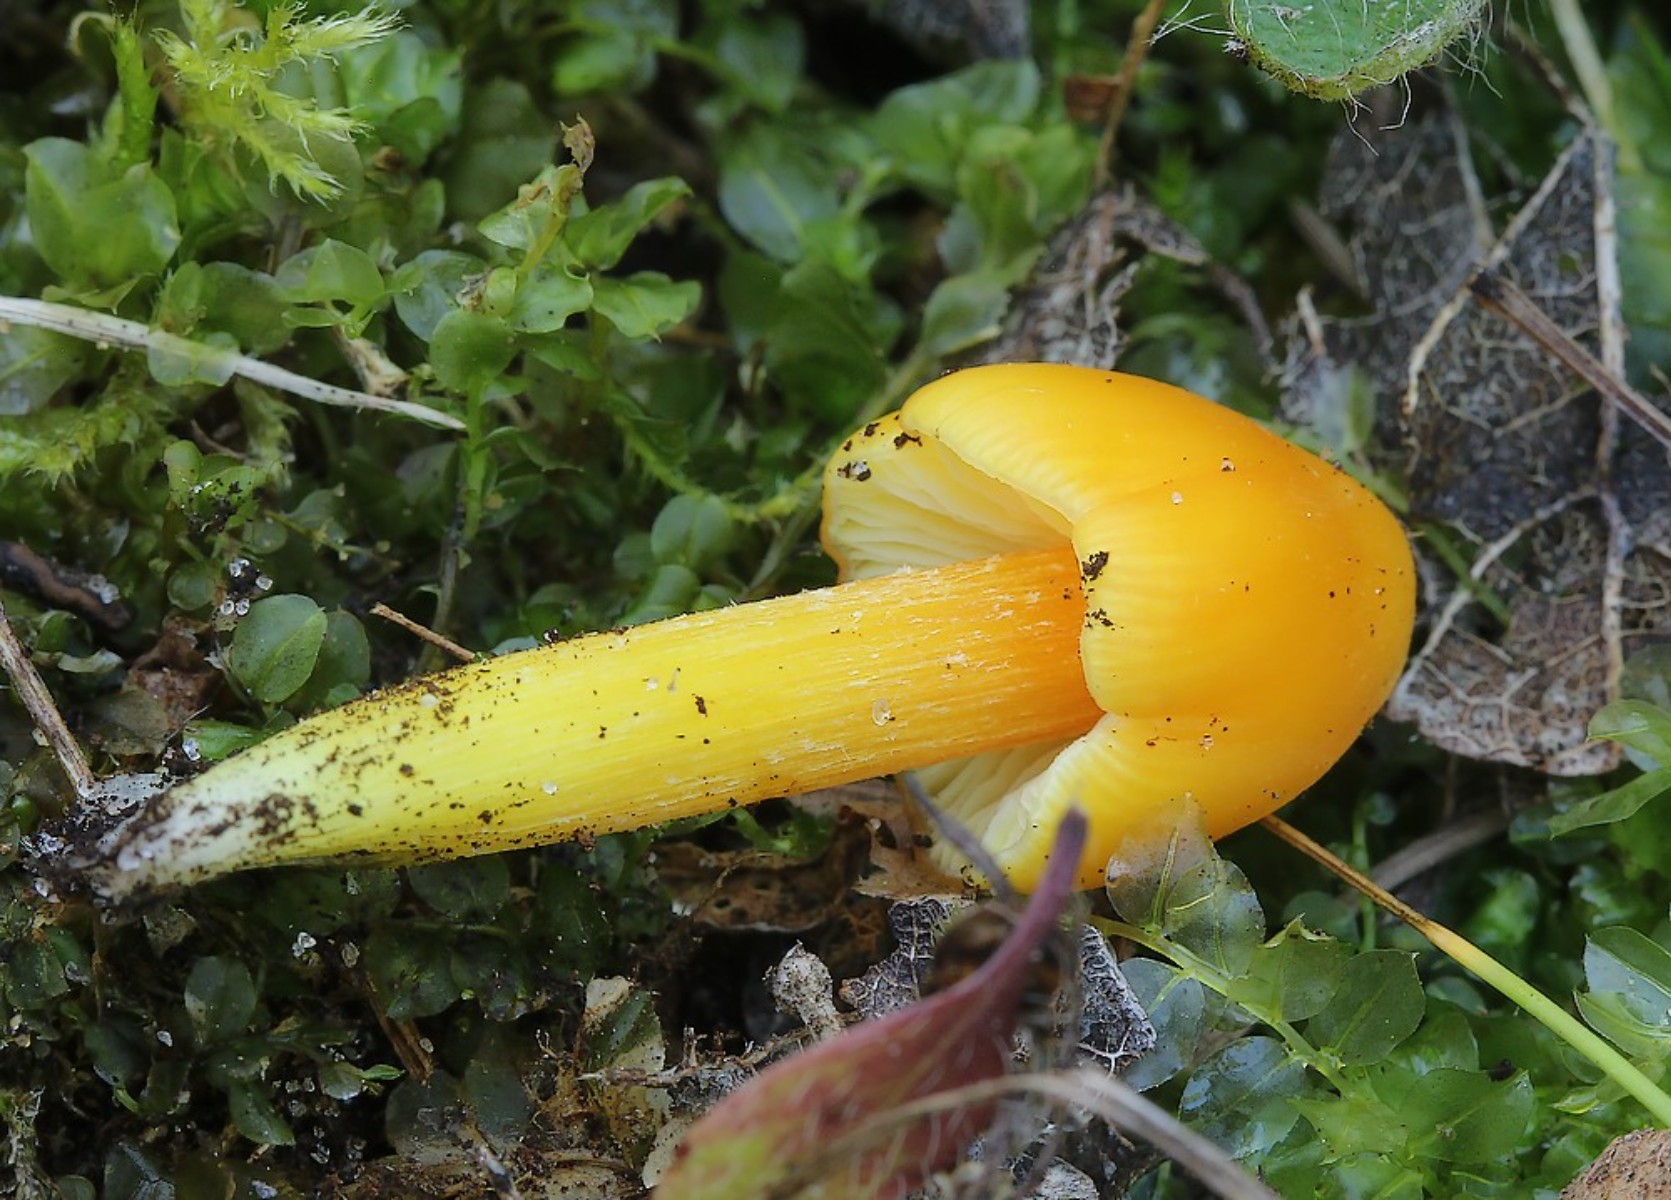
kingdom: Fungi
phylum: Basidiomycota
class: Agaricomycetes
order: Agaricales
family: Hygrophoraceae
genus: Hygrocybe
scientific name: Hygrocybe acutoconica
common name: spidspuklet vokshat
